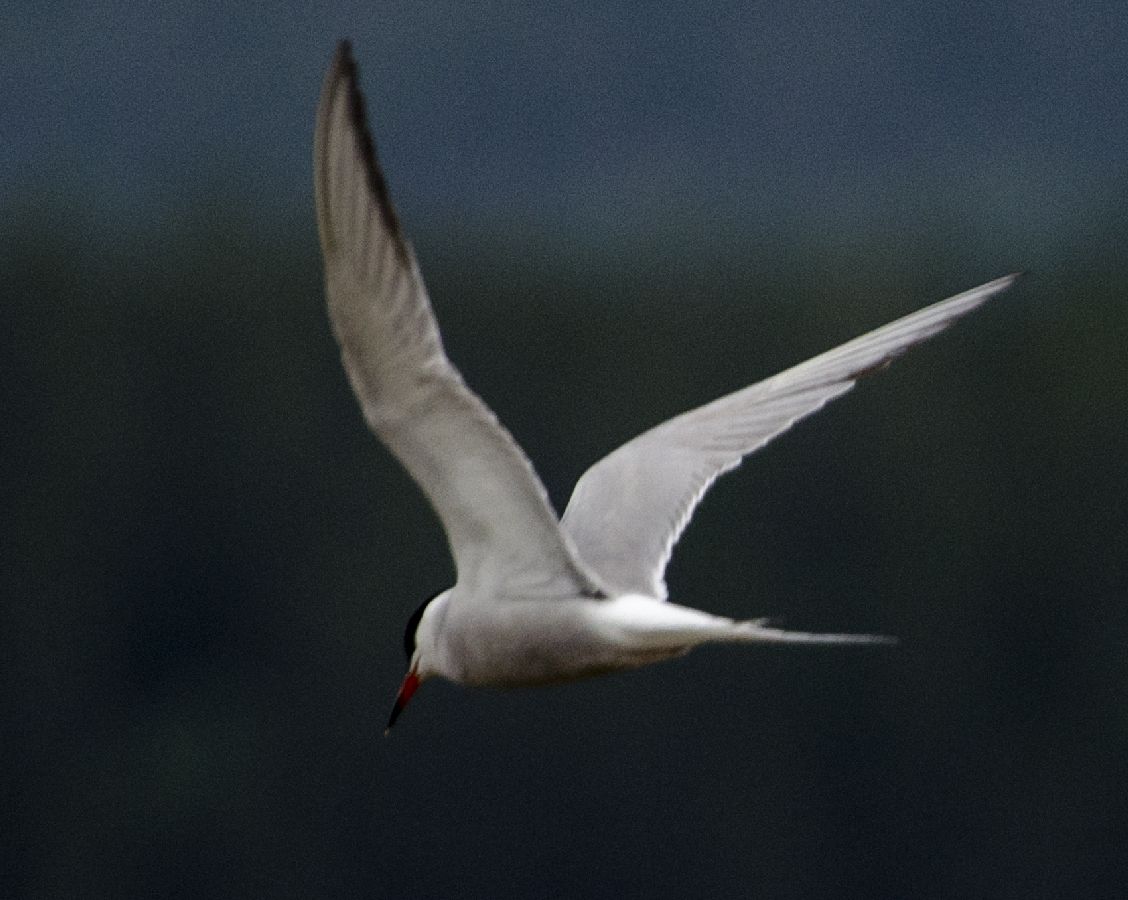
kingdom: Animalia
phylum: Chordata
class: Aves
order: Charadriiformes
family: Laridae
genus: Sterna
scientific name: Sterna paradisaea
